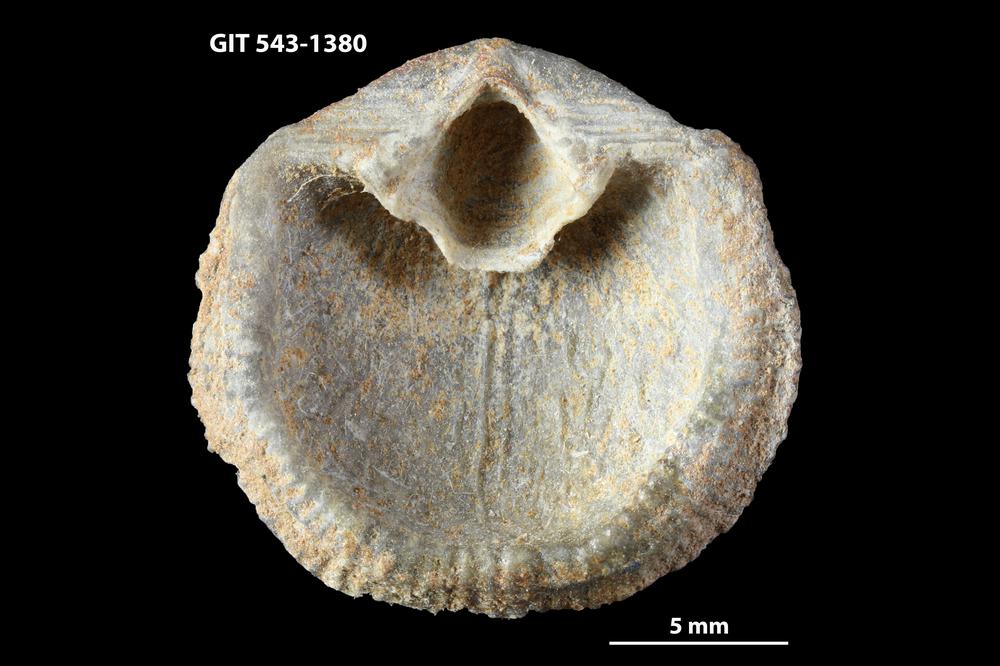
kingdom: Animalia
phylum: Brachiopoda
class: Rhynchonellata
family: Clitambonitidae
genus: Clitambonites
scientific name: Clitambonites Orthisina schmidti
